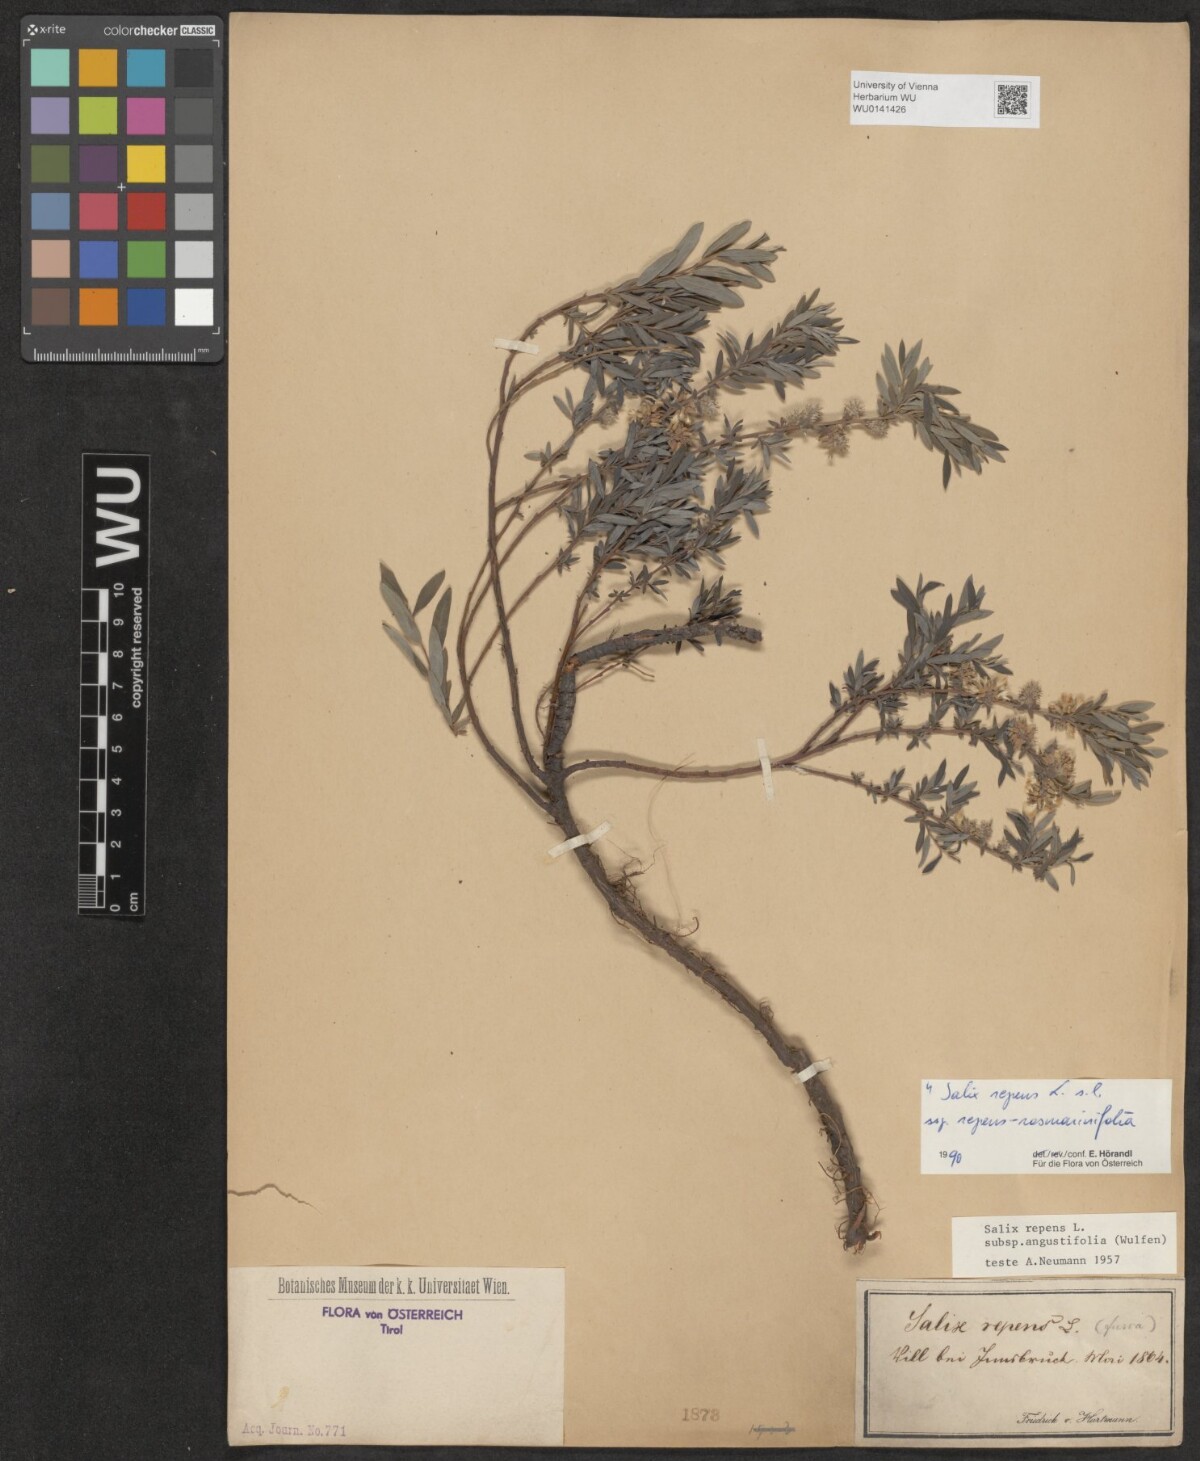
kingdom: Plantae
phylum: Tracheophyta
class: Magnoliopsida
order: Malpighiales
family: Salicaceae
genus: Salix
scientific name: Salix repens
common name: Creeping willow
